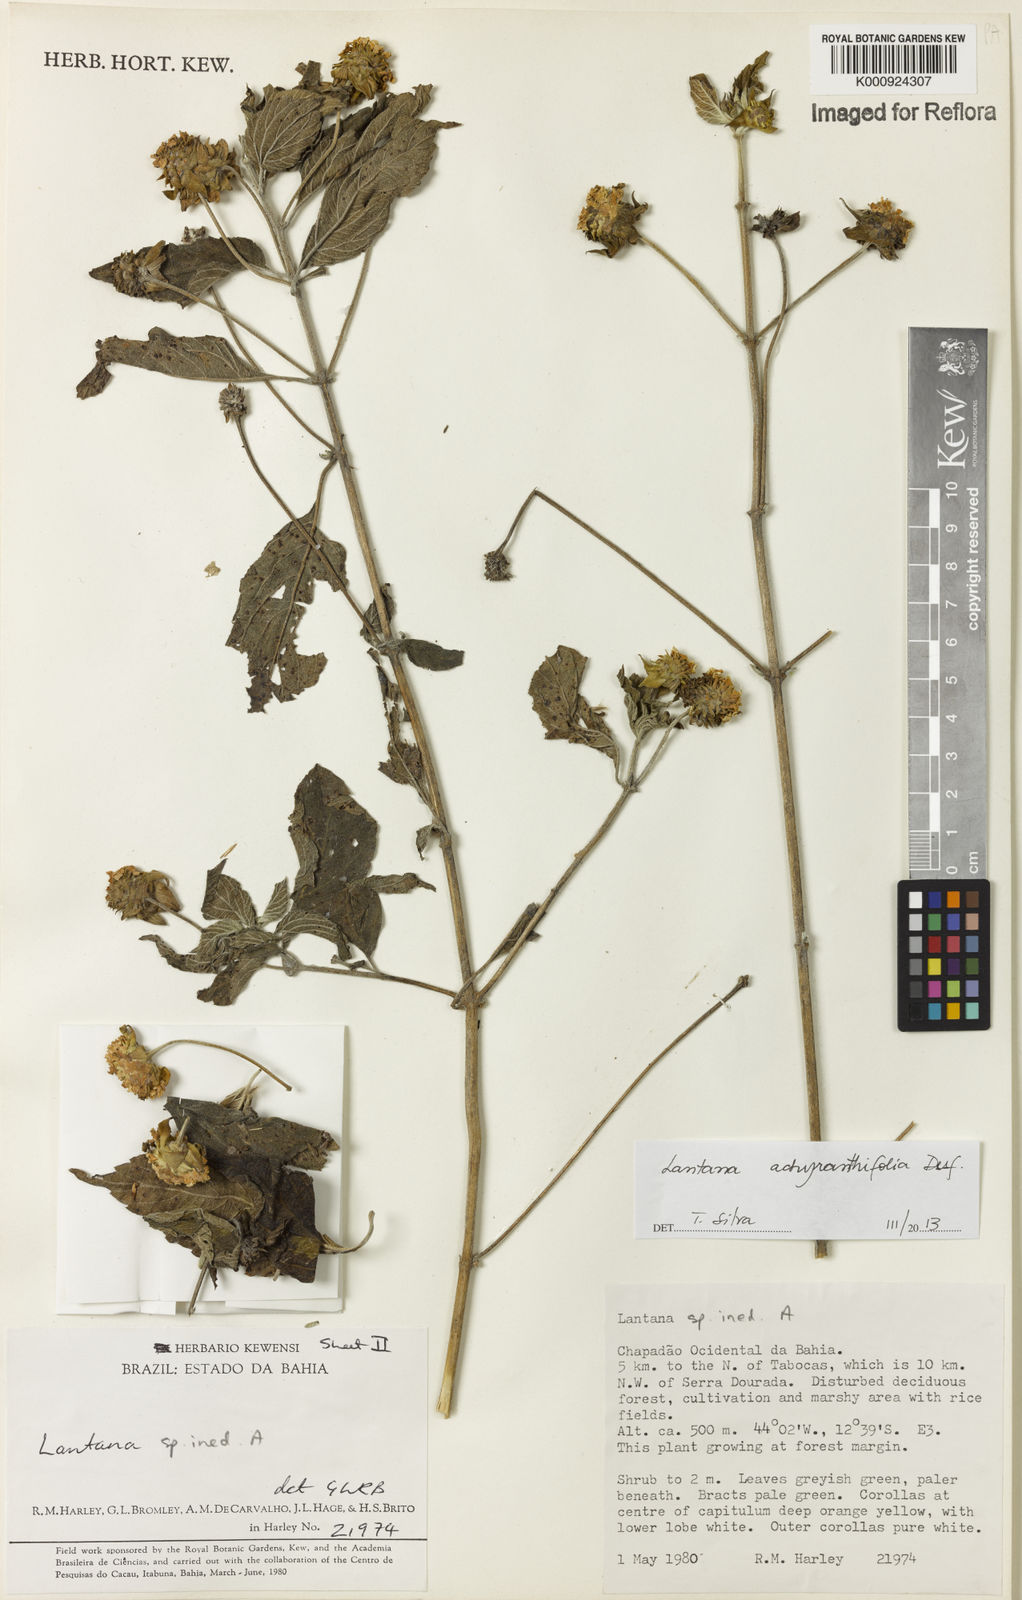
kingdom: Plantae
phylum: Tracheophyta
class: Magnoliopsida
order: Lamiales
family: Verbenaceae
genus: Lantana
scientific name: Lantana achyranthifolia
